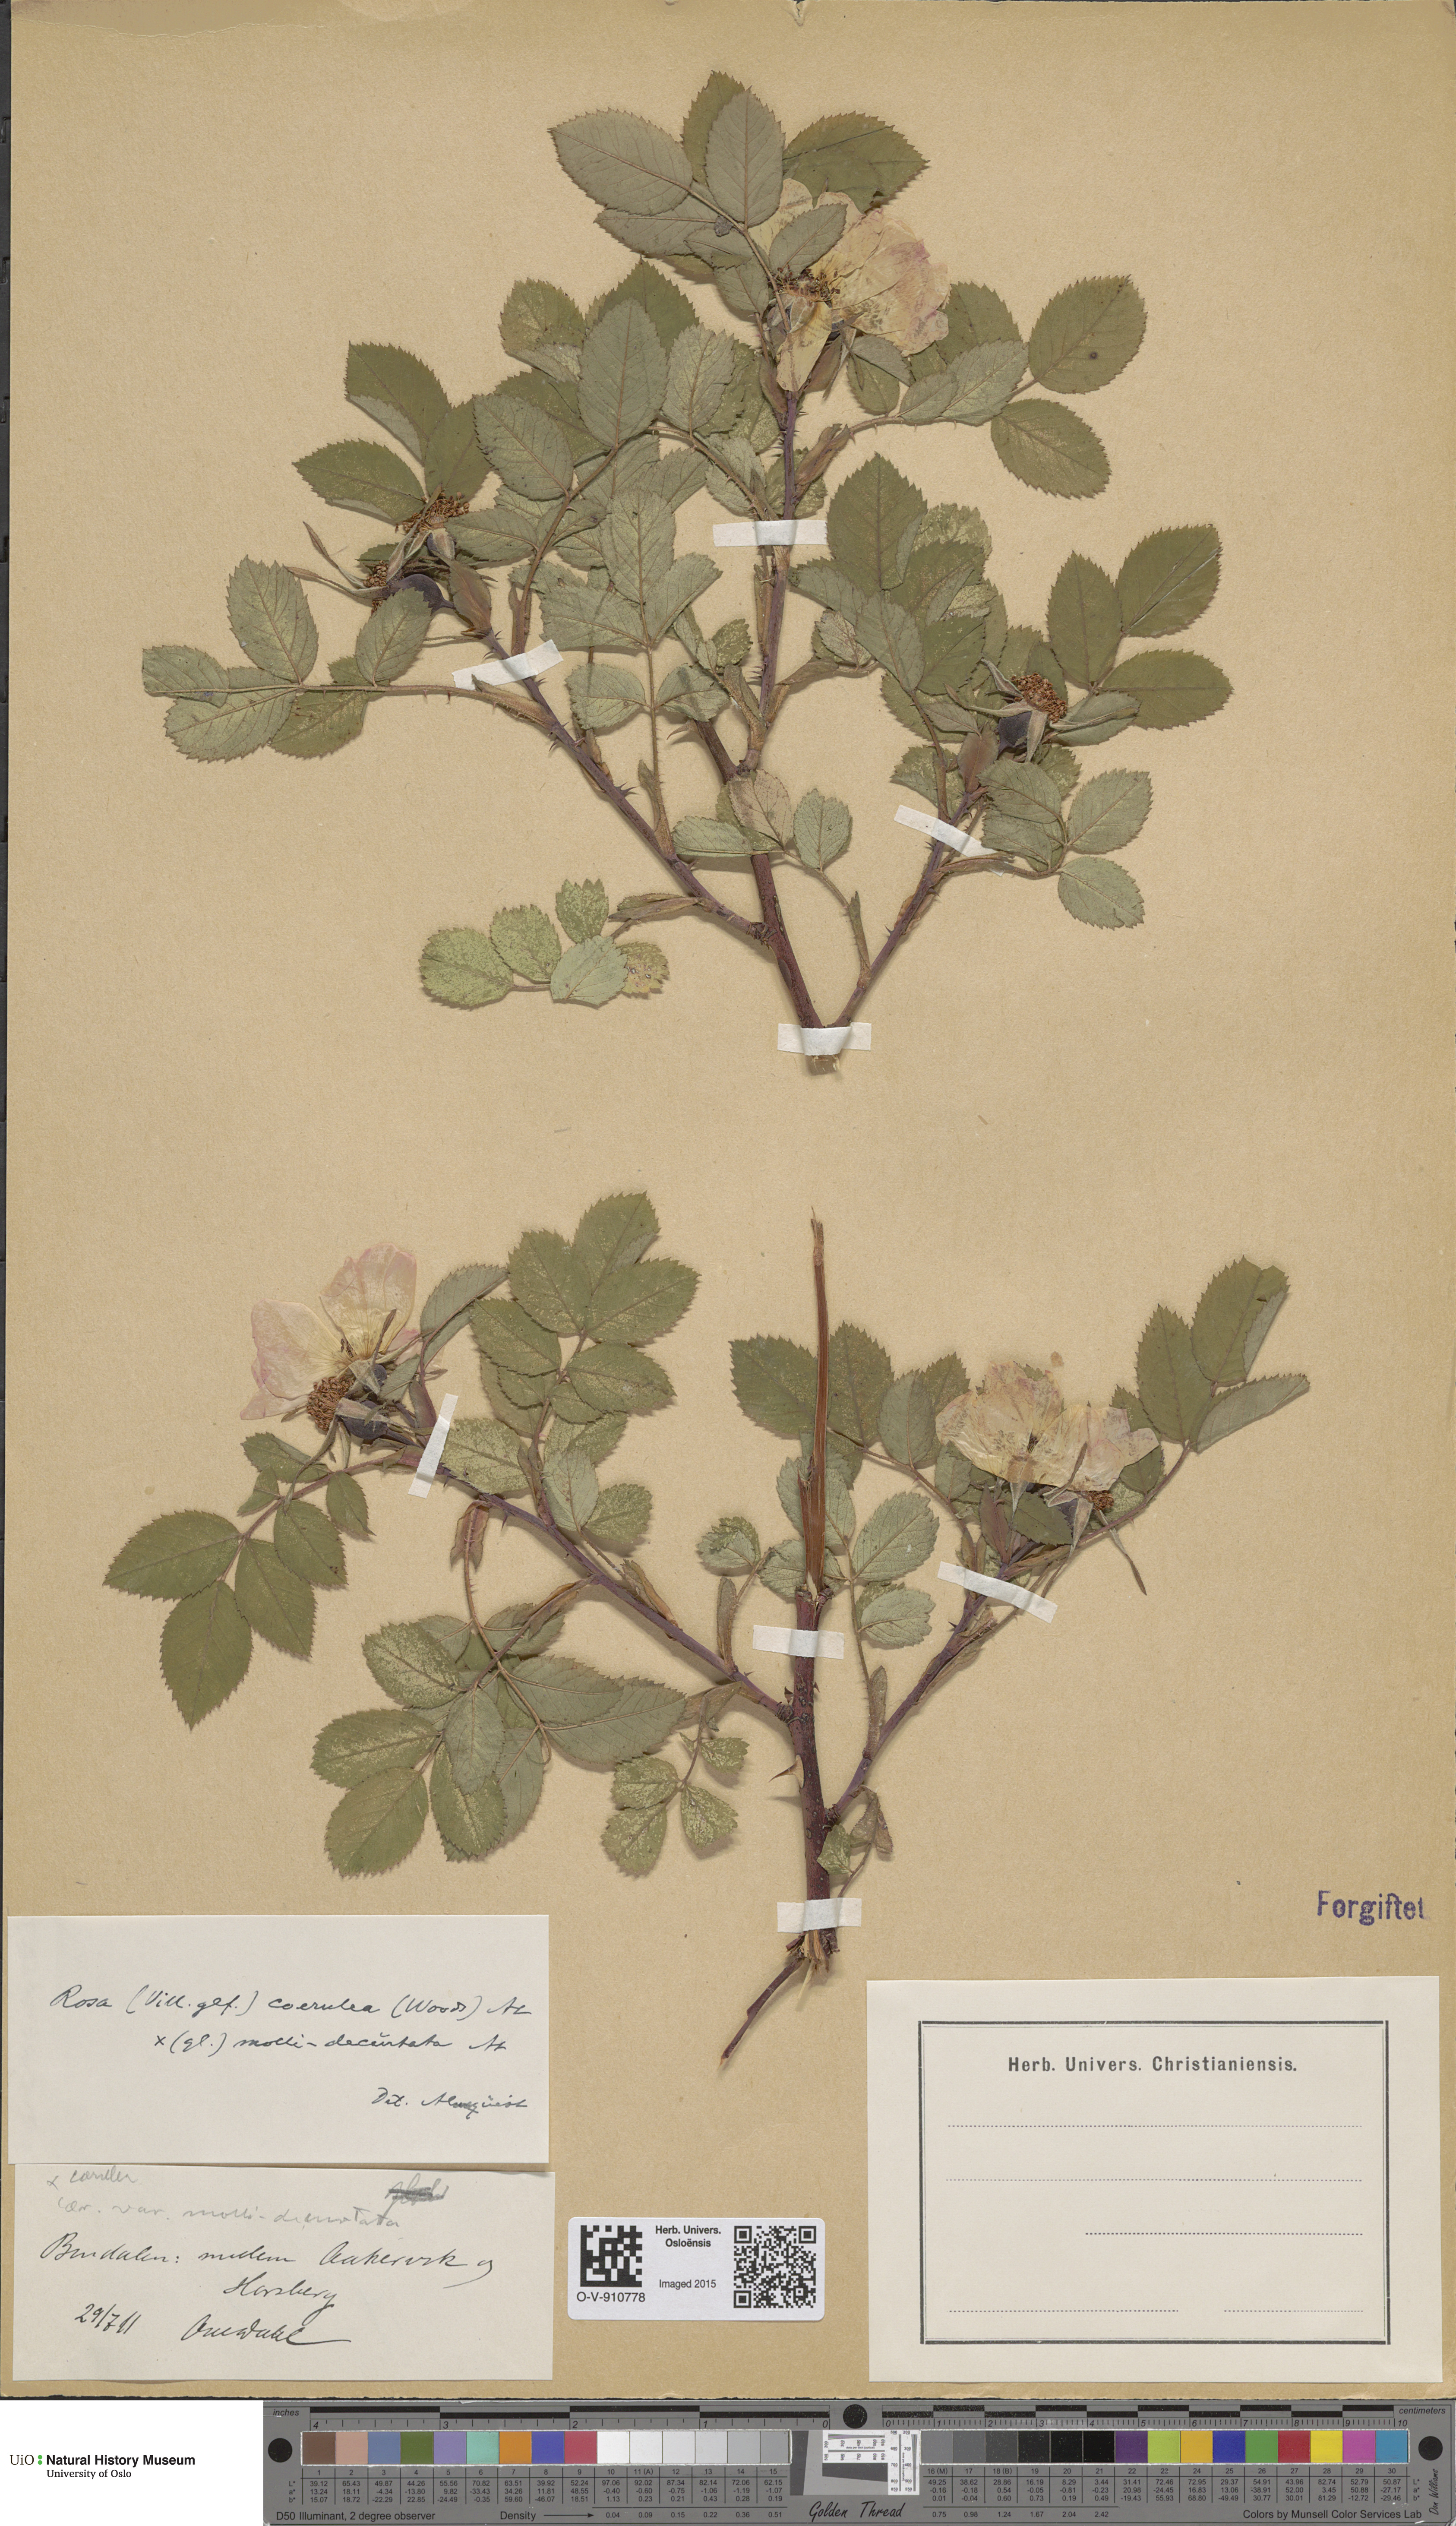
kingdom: Plantae
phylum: Tracheophyta
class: Magnoliopsida
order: Rosales
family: Rosaceae
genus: Rosa
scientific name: Rosa mollis
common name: Rose
